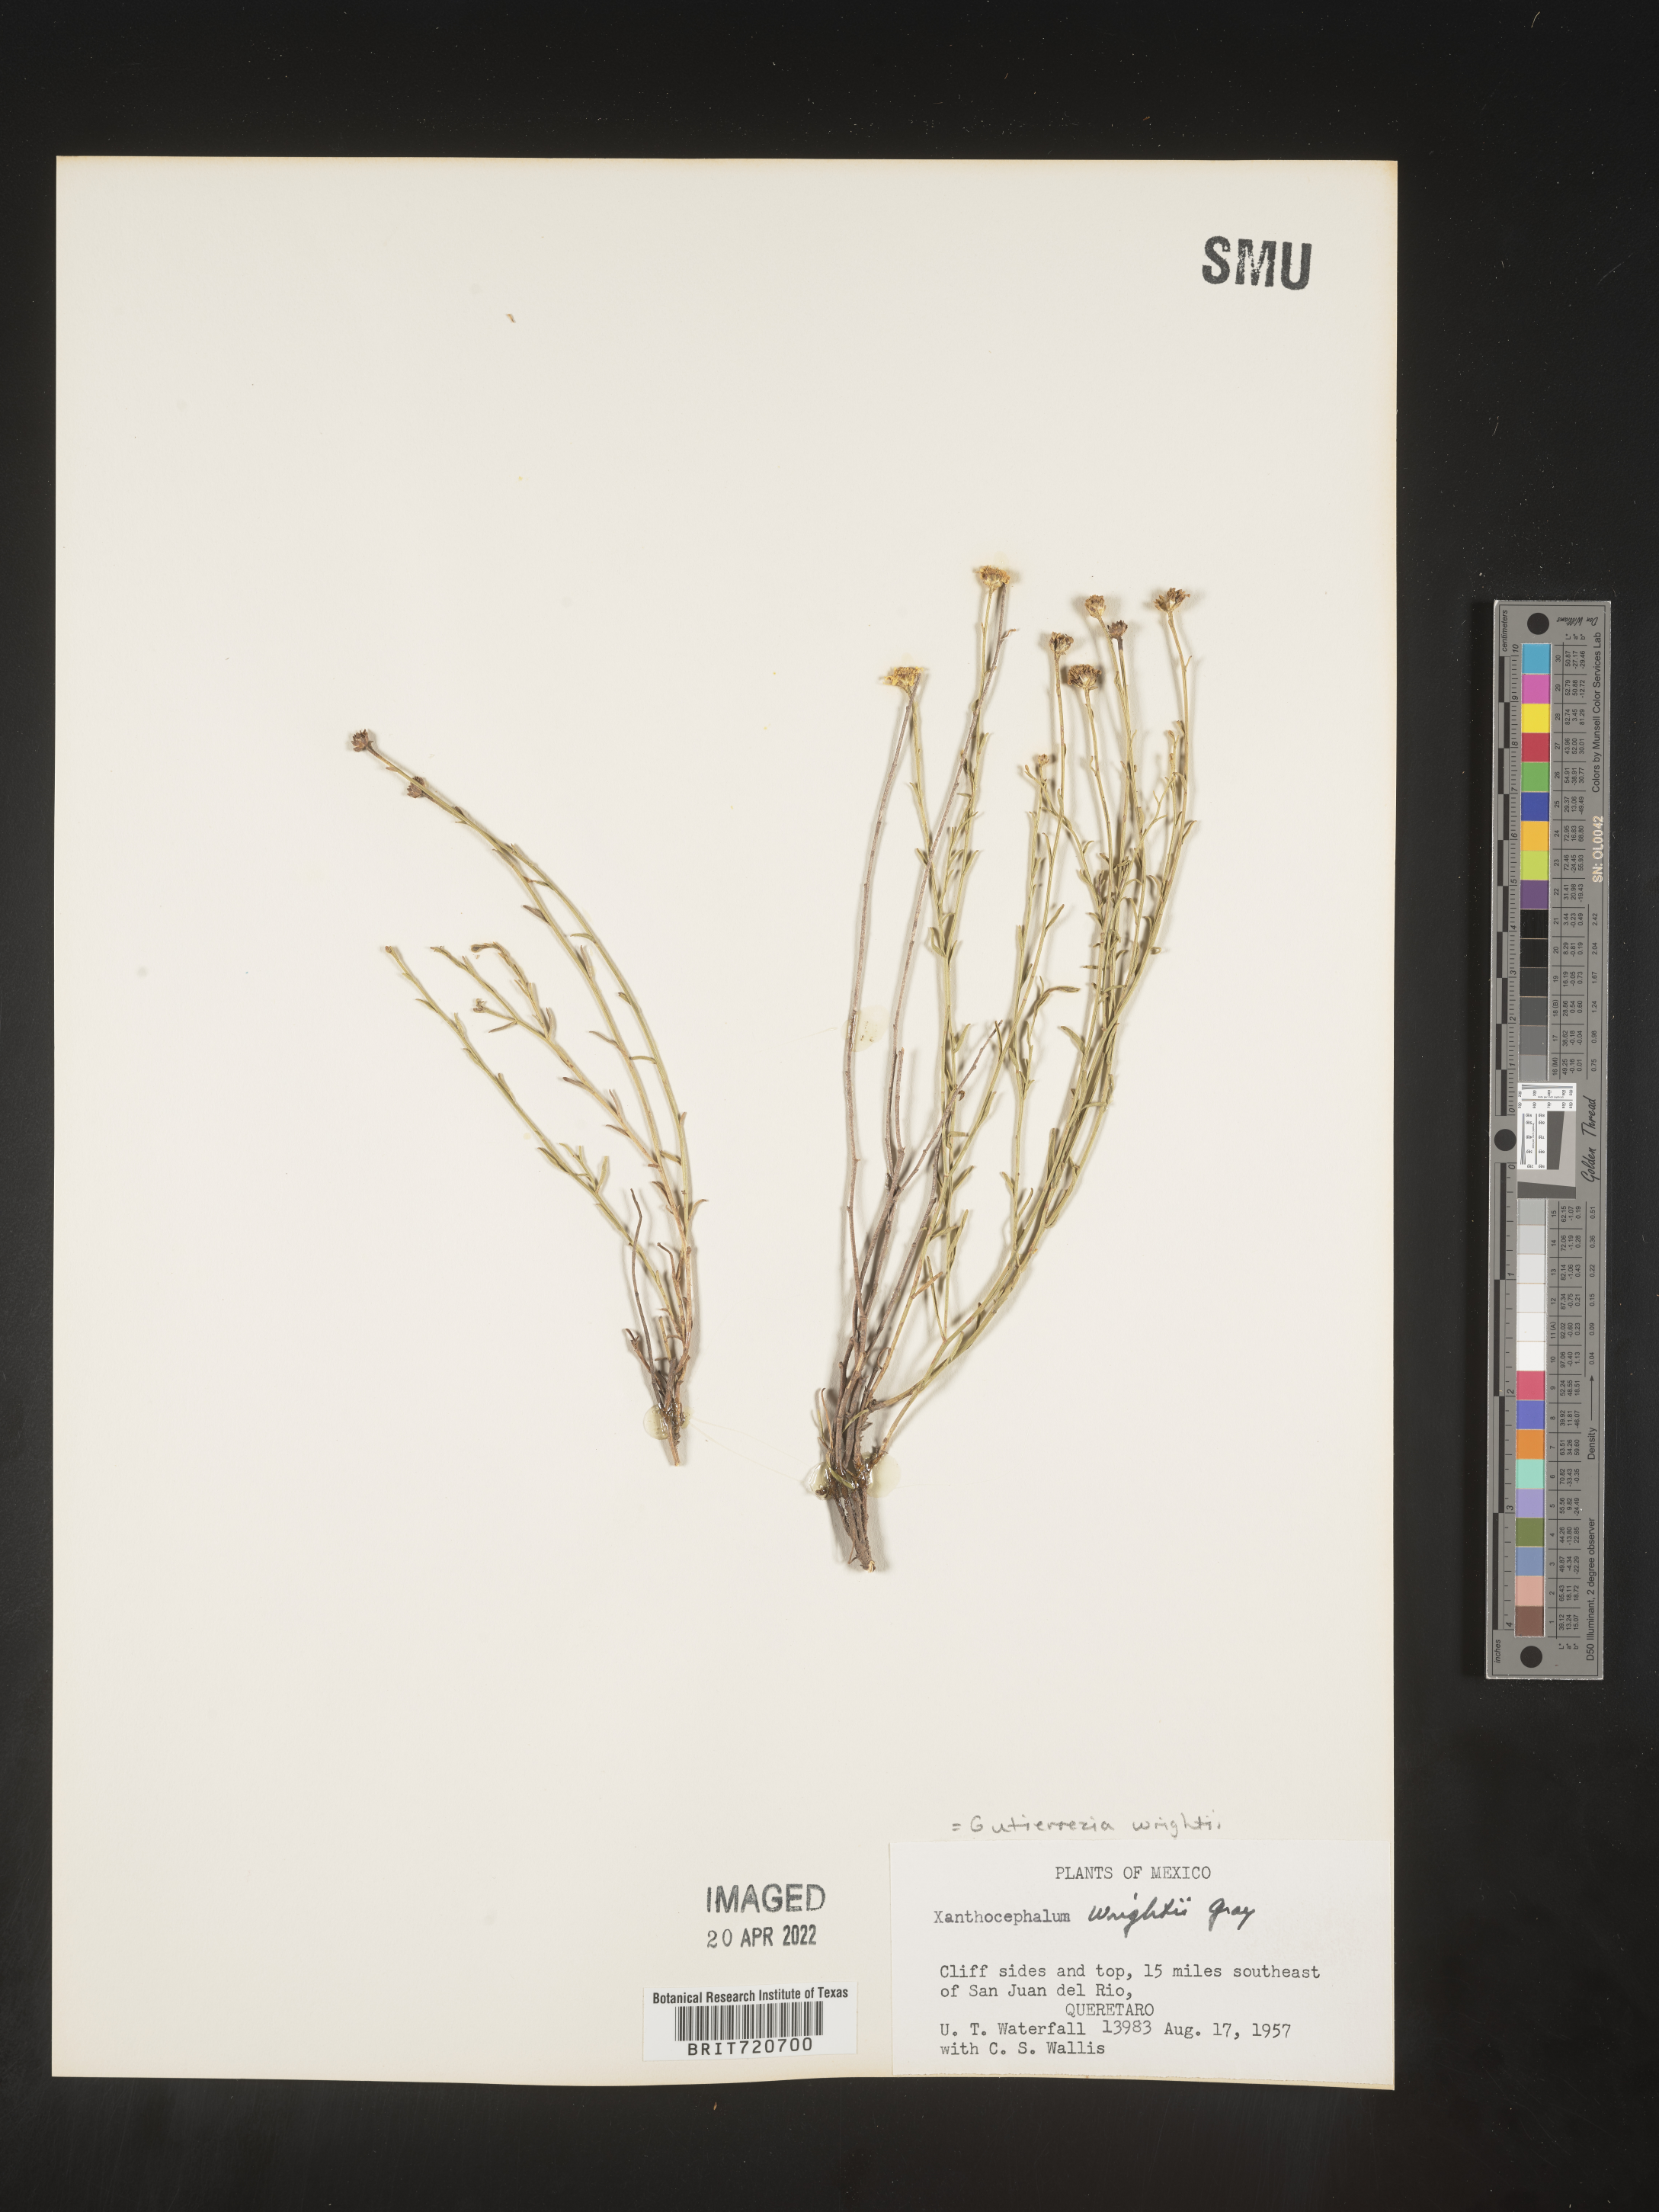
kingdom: Plantae
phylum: Tracheophyta
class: Magnoliopsida
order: Asterales
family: Asteraceae
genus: Gutierrezia
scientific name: Gutierrezia sericocarpa
